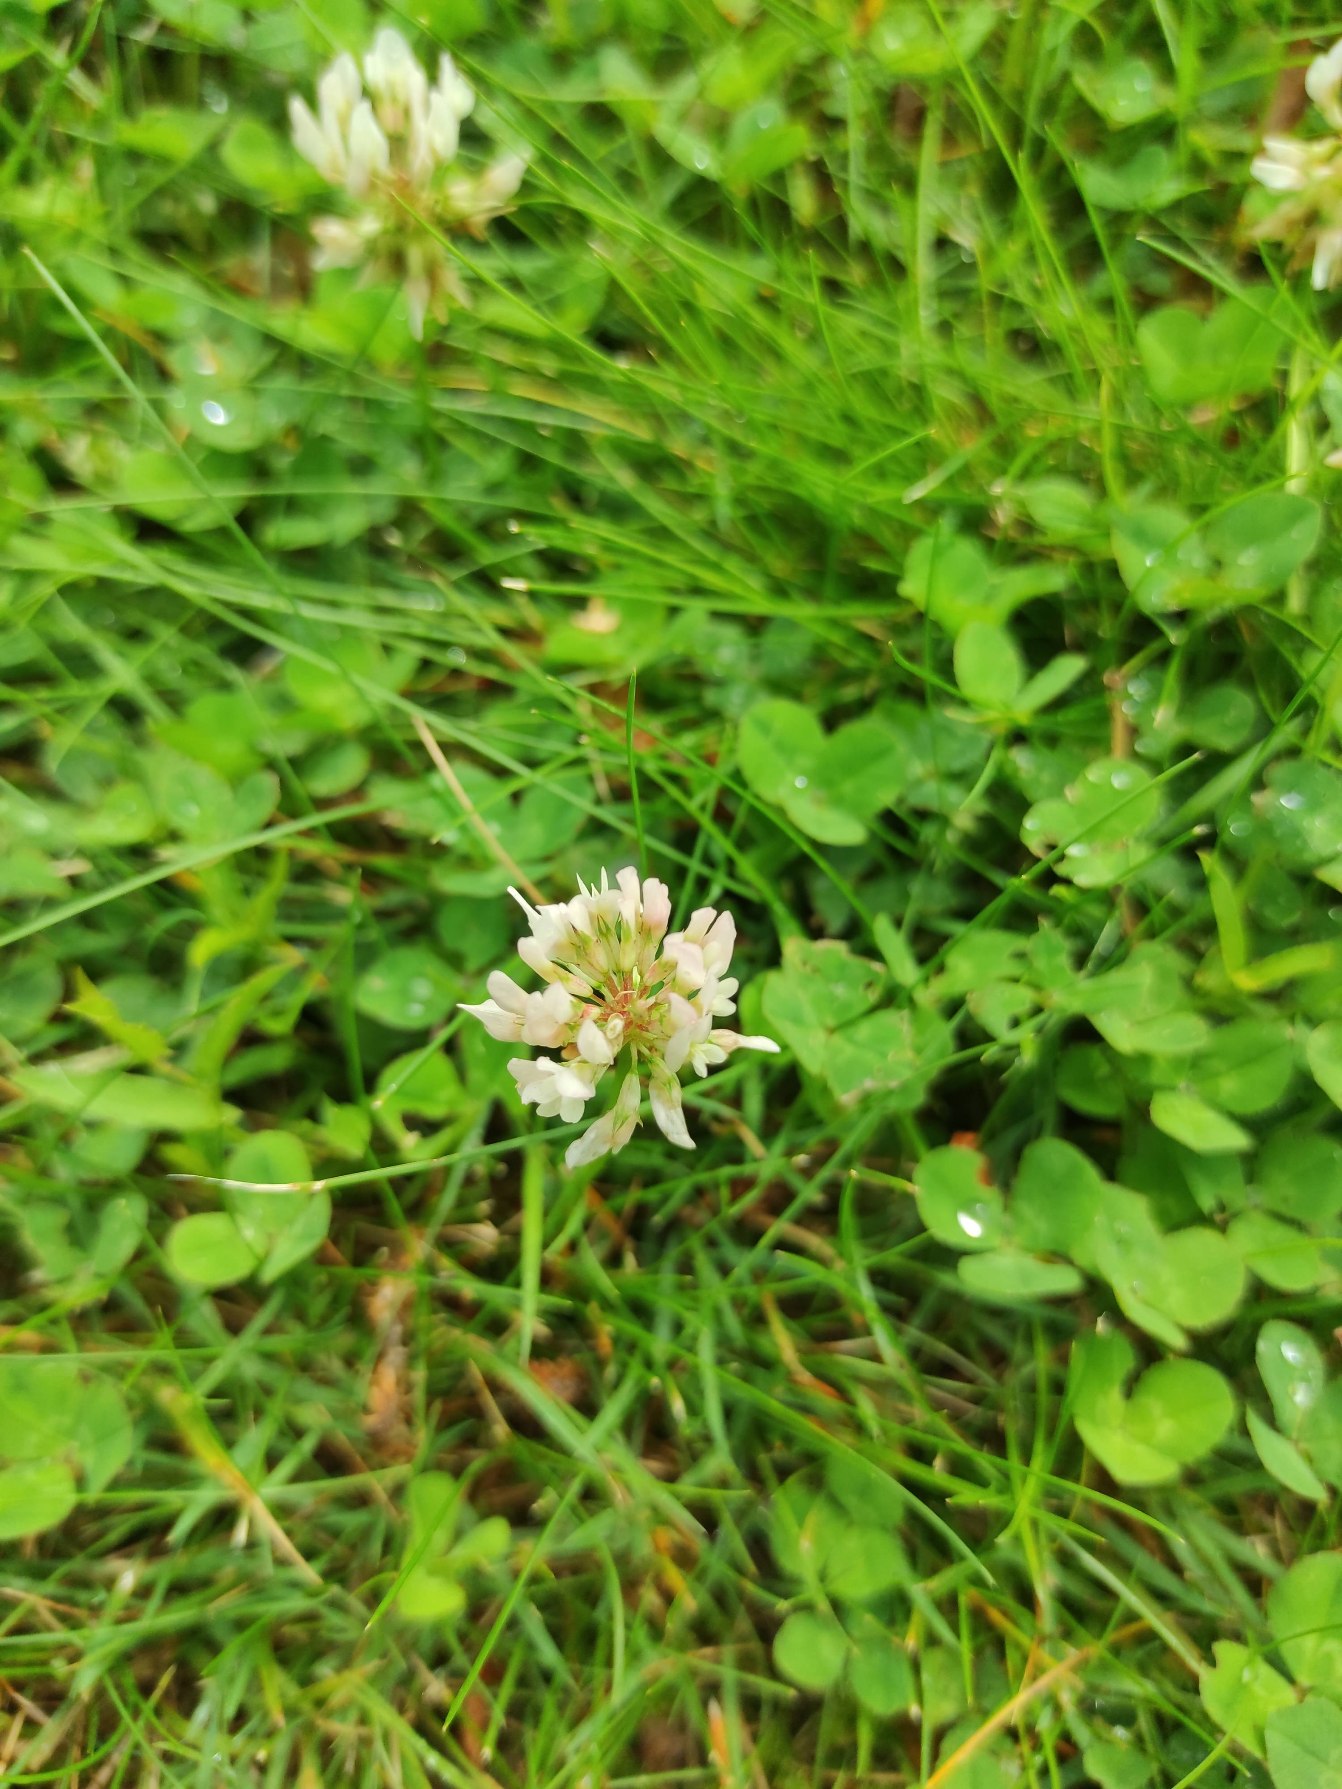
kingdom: Plantae
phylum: Tracheophyta
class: Magnoliopsida
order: Fabales
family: Fabaceae
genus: Trifolium
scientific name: Trifolium repens
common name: Hvid-kløver
